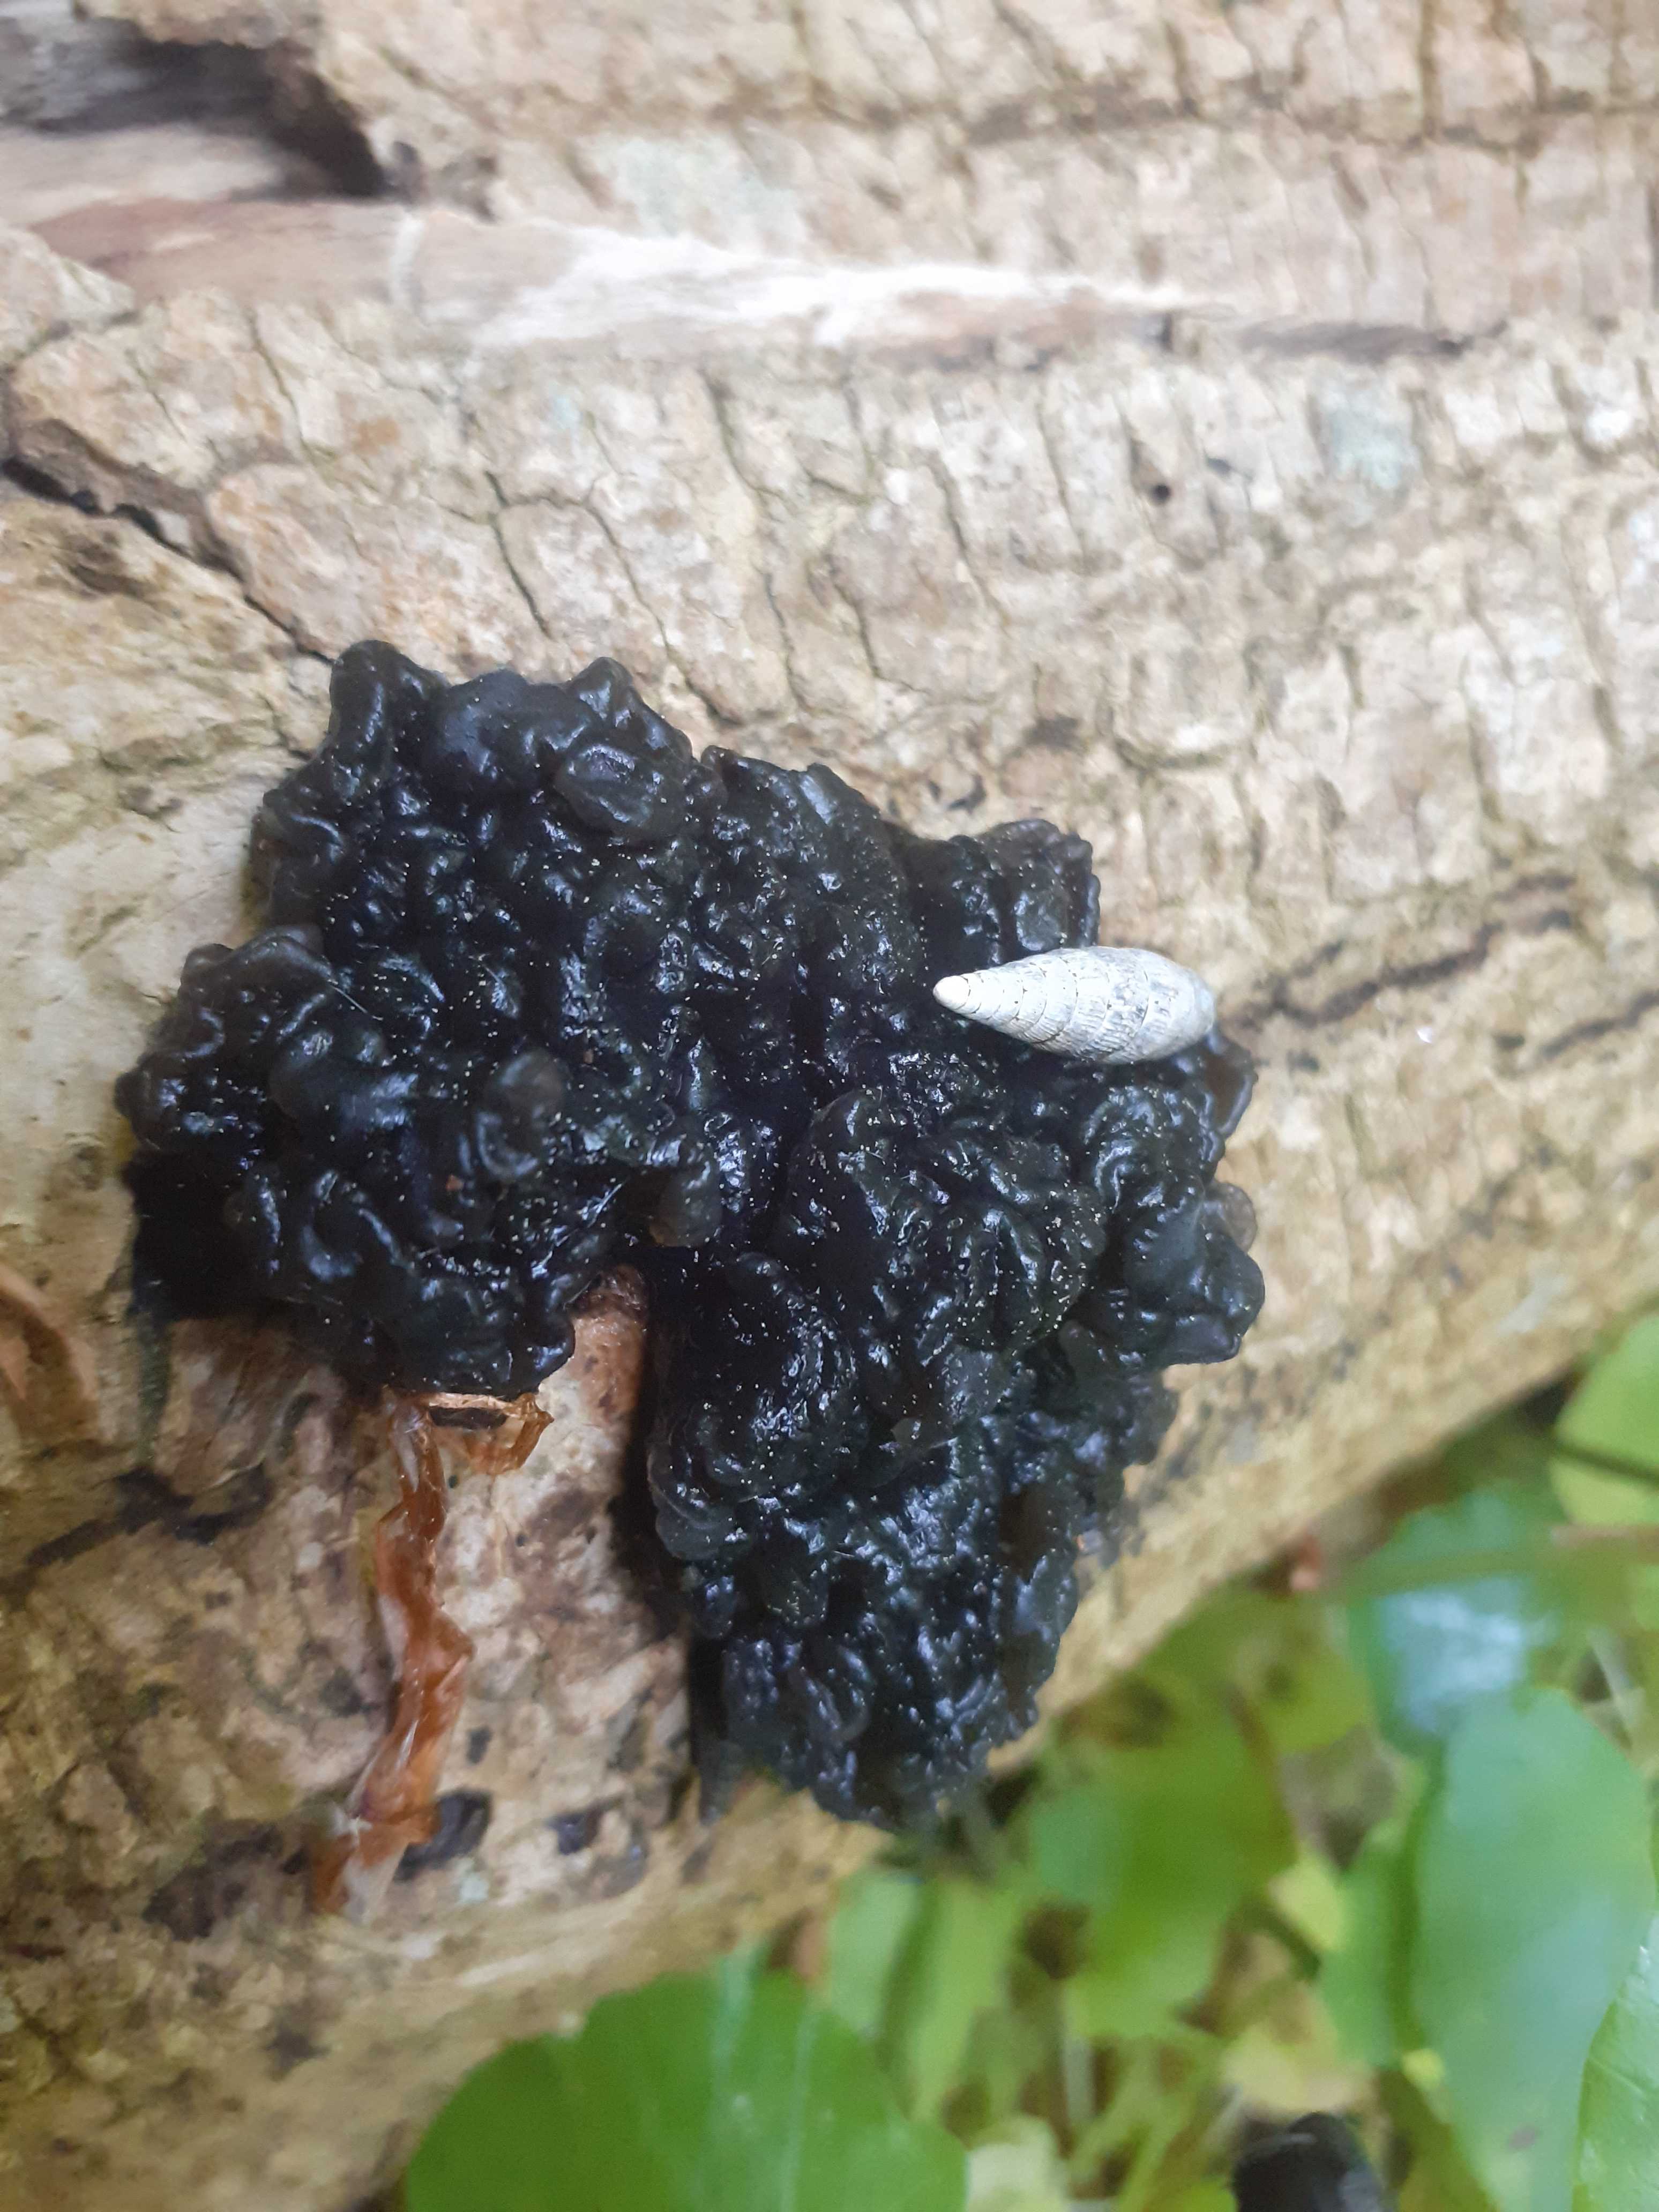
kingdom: Fungi
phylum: Basidiomycota
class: Agaricomycetes
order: Auriculariales
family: Auriculariaceae
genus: Exidia
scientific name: Exidia nigricans
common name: almindelig bævretop
